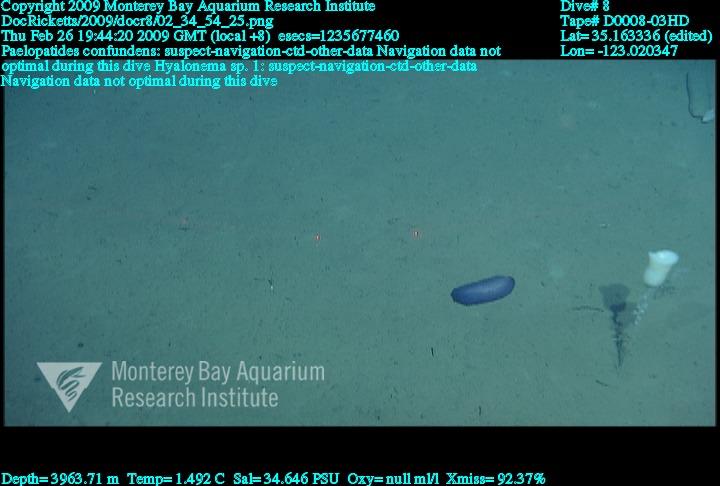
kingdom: Animalia
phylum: Porifera
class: Hexactinellida
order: Amphidiscosida
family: Hyalonematidae
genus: Hyalonema
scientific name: Hyalonema
